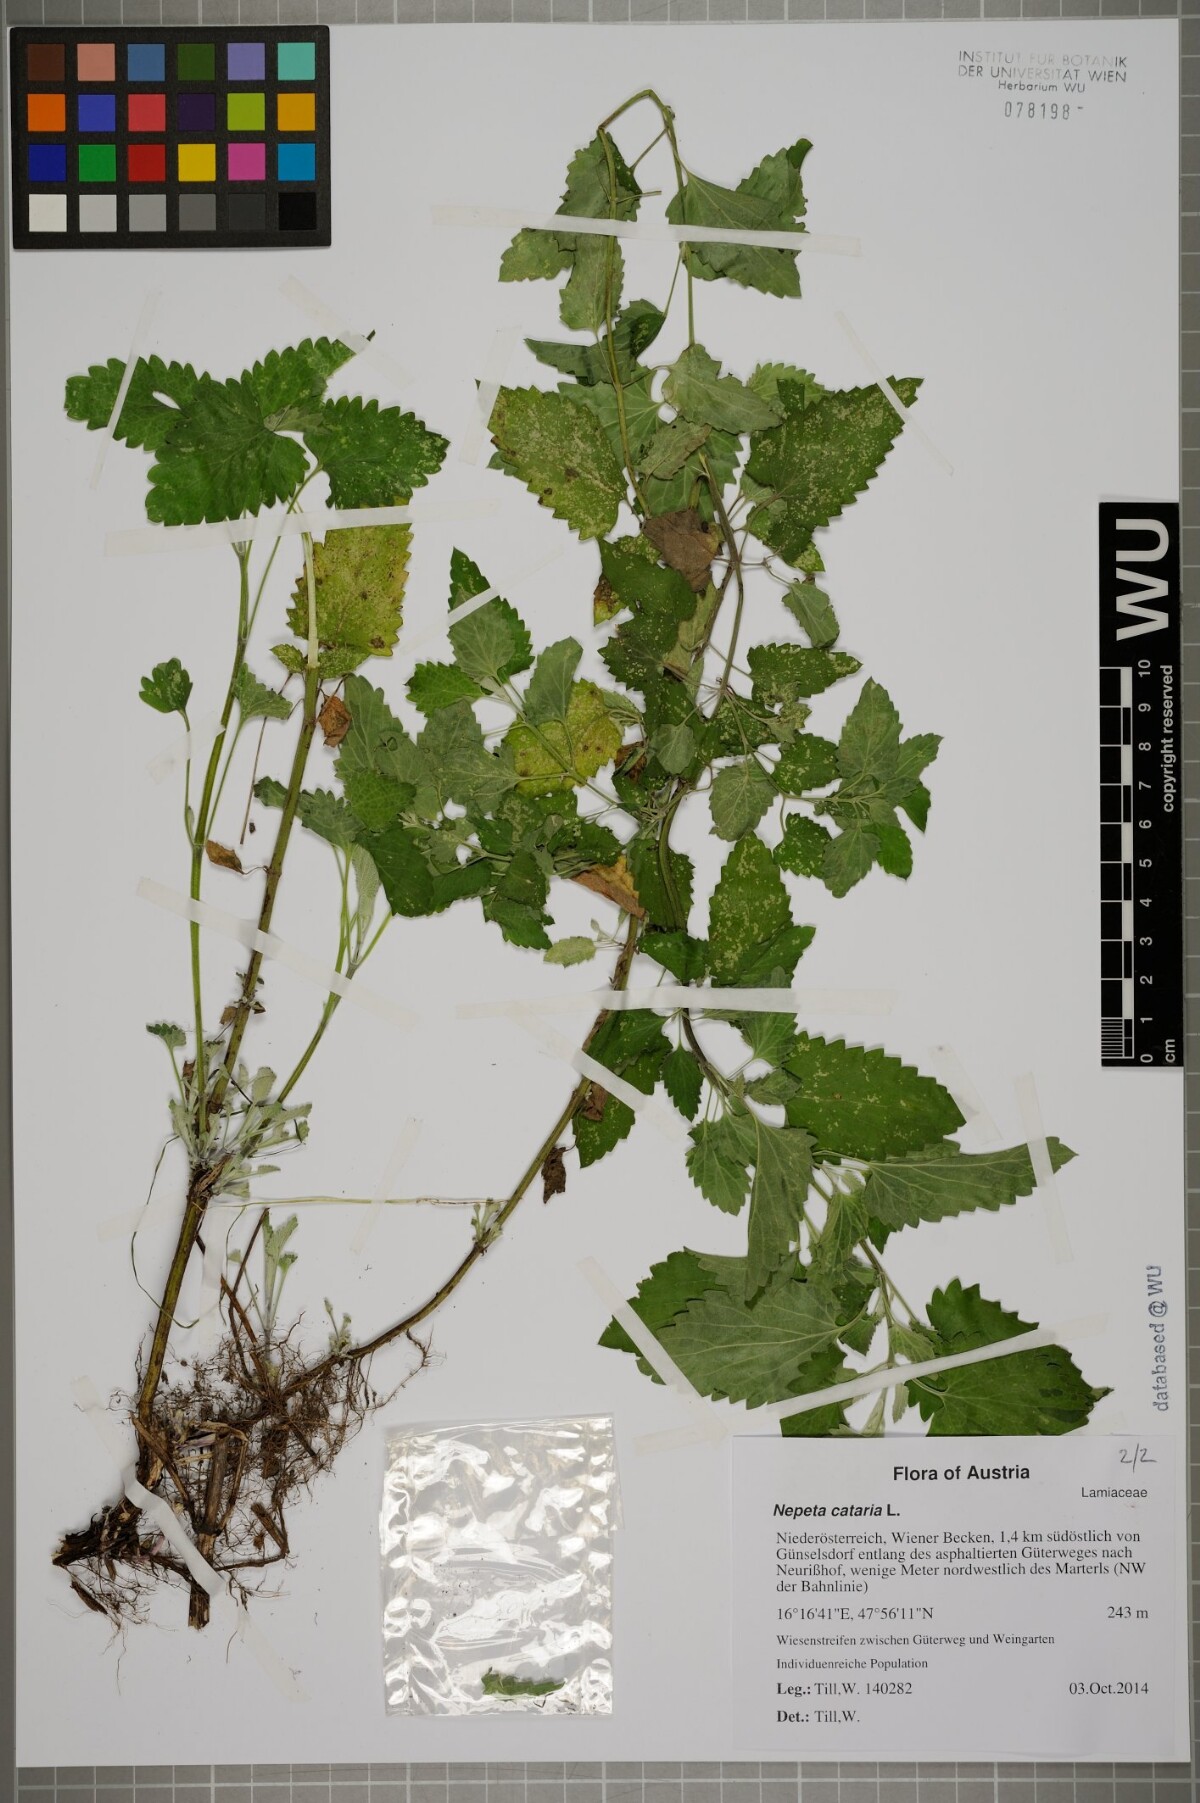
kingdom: Plantae
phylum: Tracheophyta
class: Magnoliopsida
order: Lamiales
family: Lamiaceae
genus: Nepeta
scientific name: Nepeta cataria
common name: Catnip
